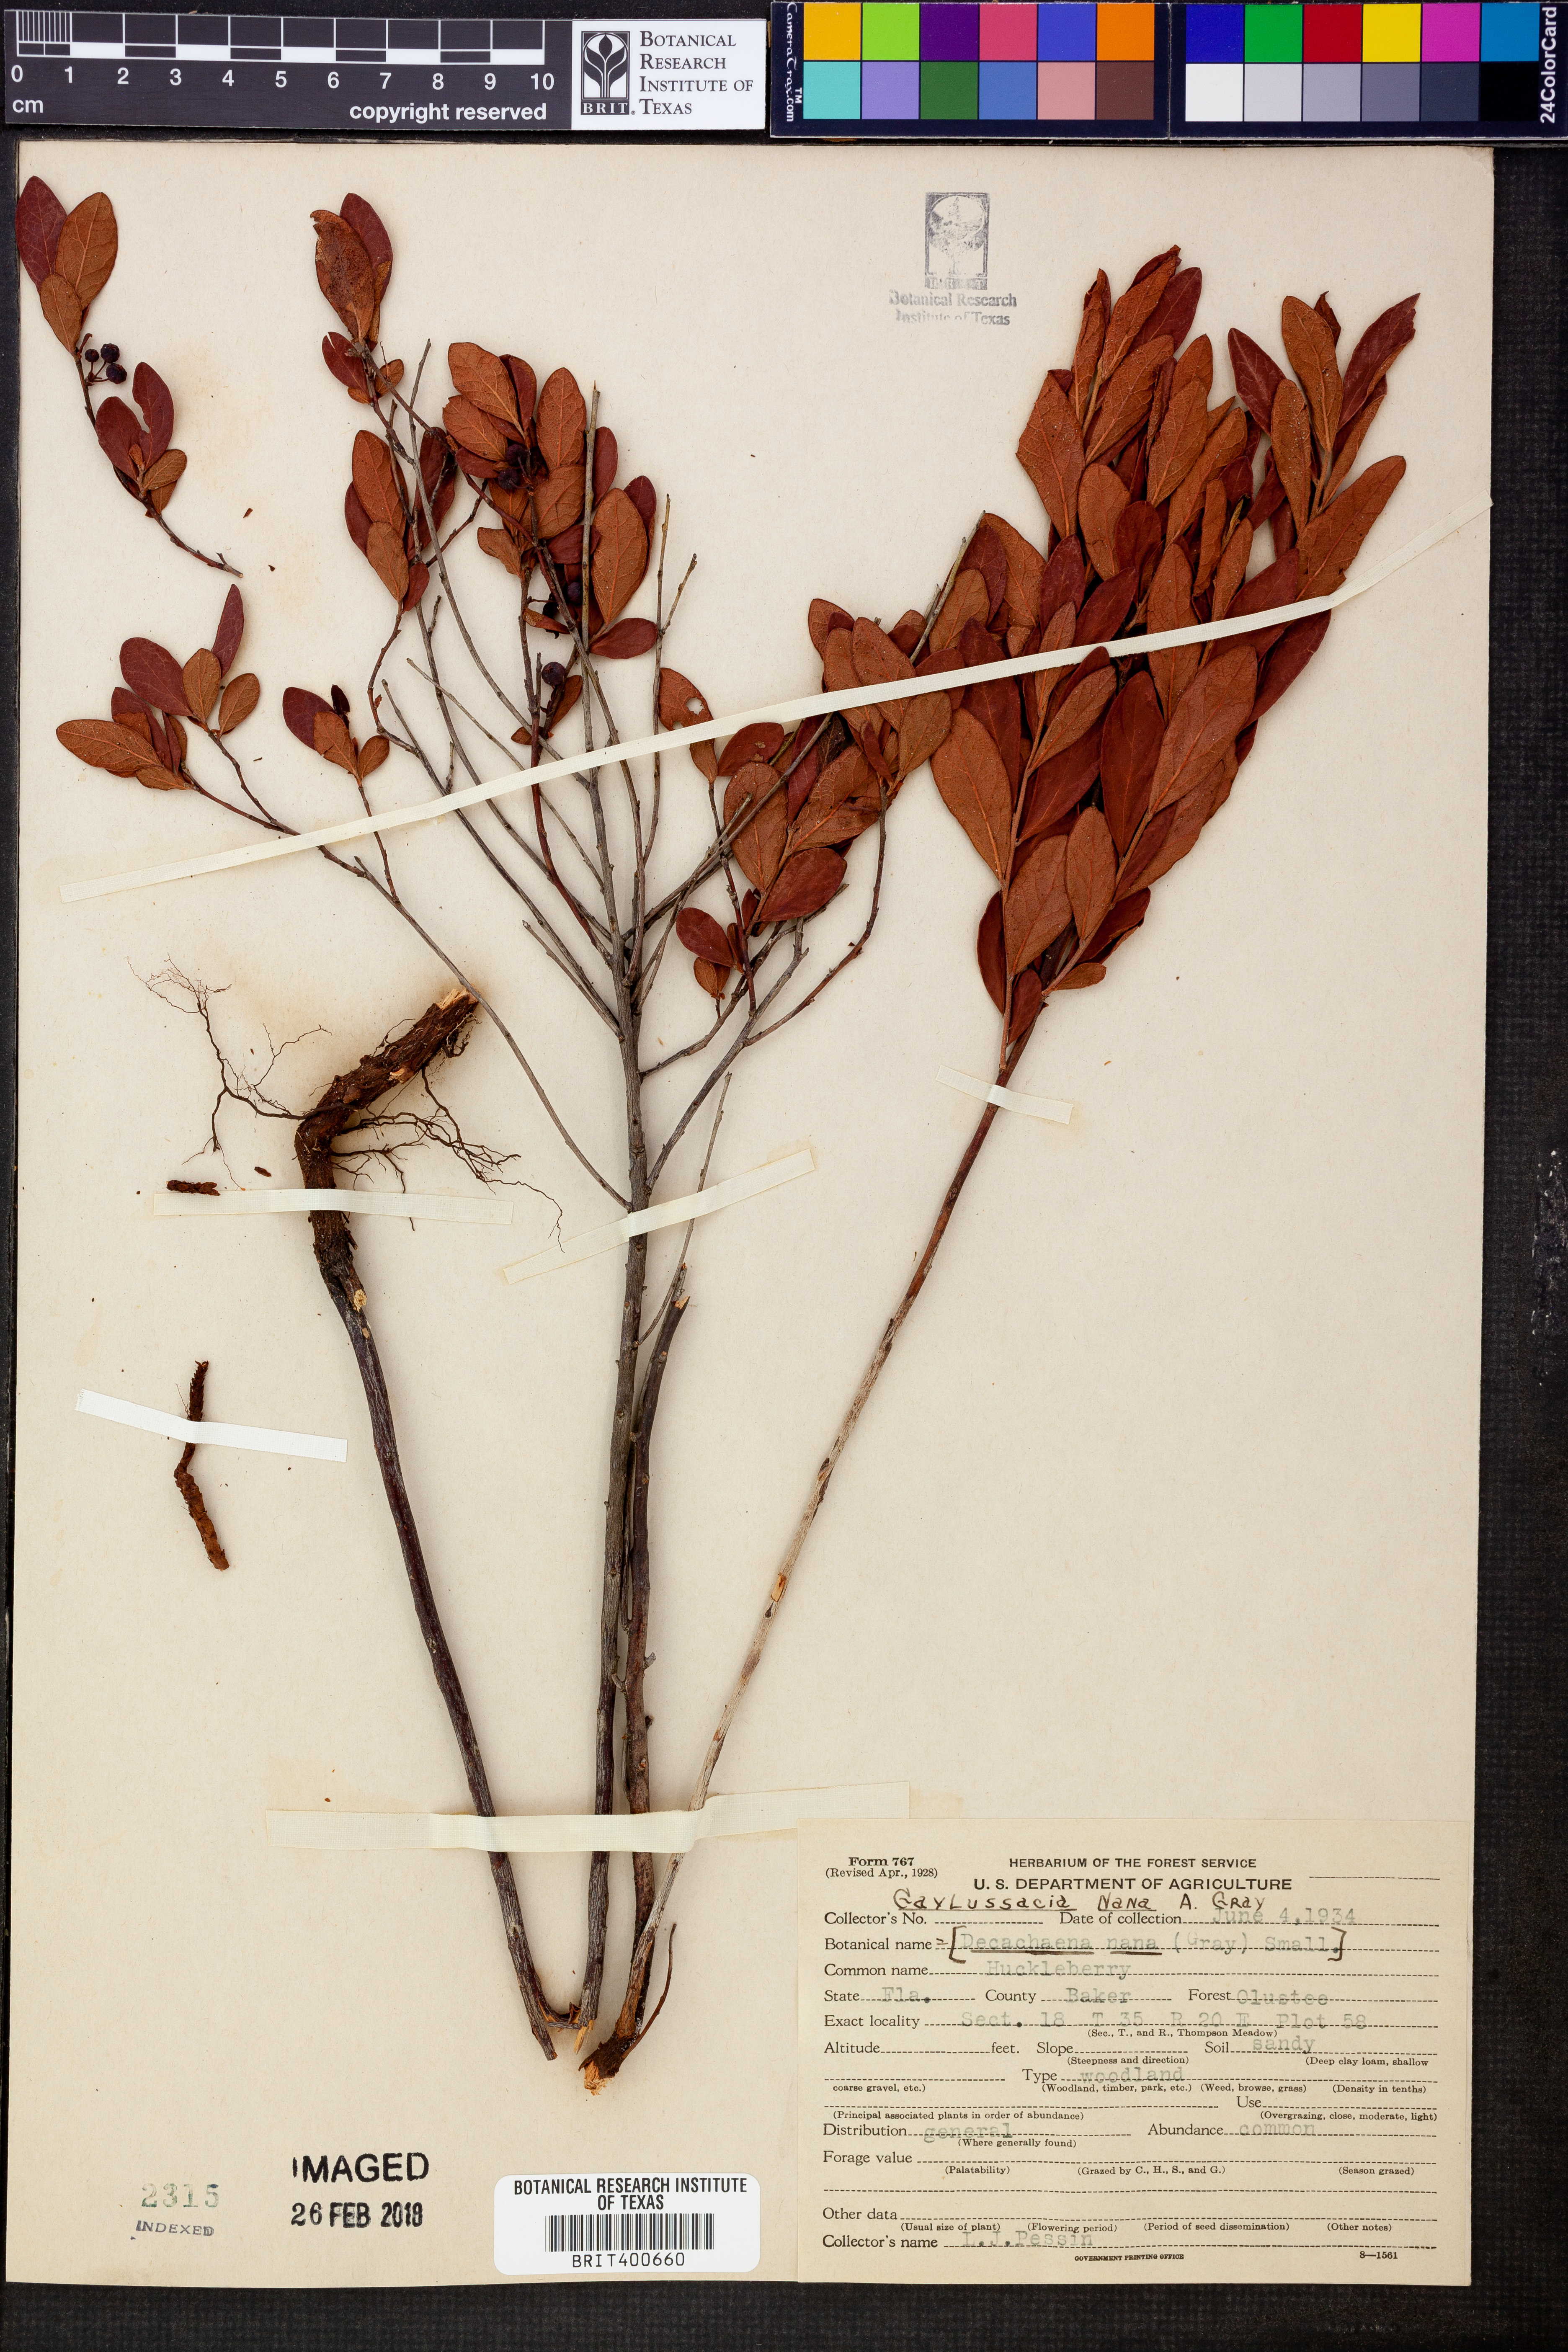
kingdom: Plantae
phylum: Tracheophyta
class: Magnoliopsida
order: Ericales
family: Ericaceae
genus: Gaylussacia
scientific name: Gaylussacia nana
